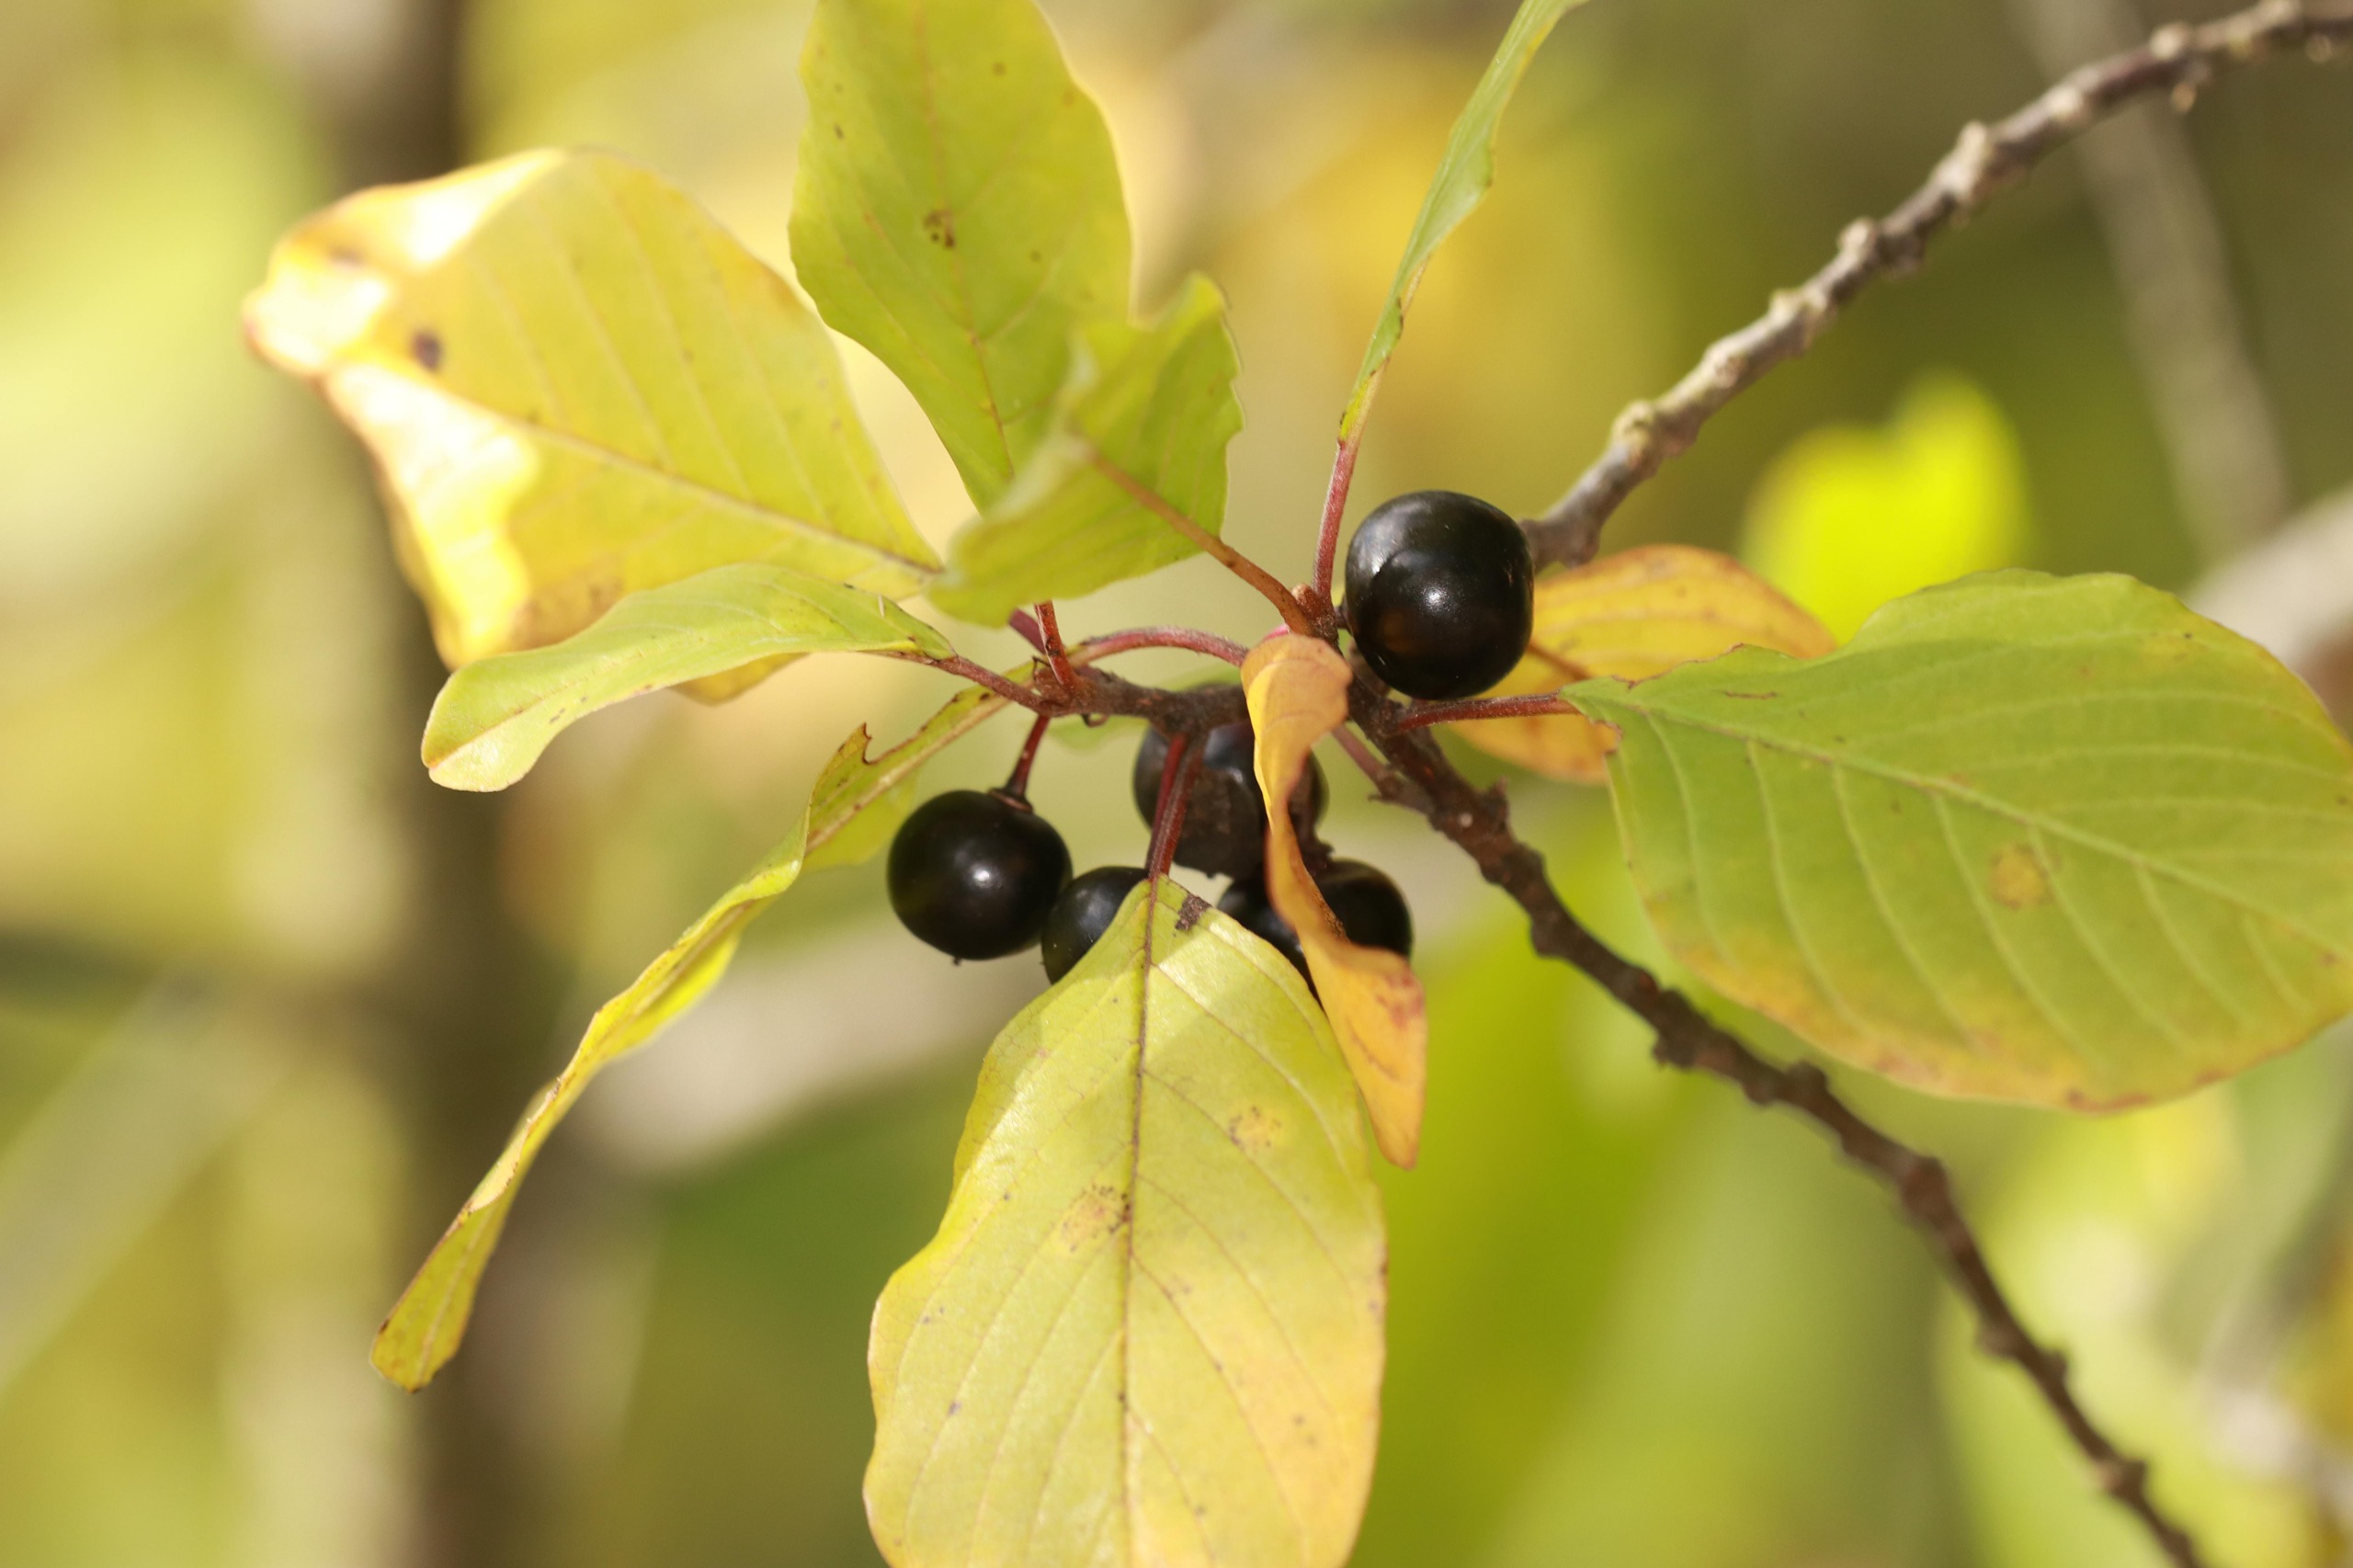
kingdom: Plantae
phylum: Tracheophyta
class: Magnoliopsida
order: Rosales
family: Rhamnaceae
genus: Frangula
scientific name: Frangula alnus
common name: Tørst
